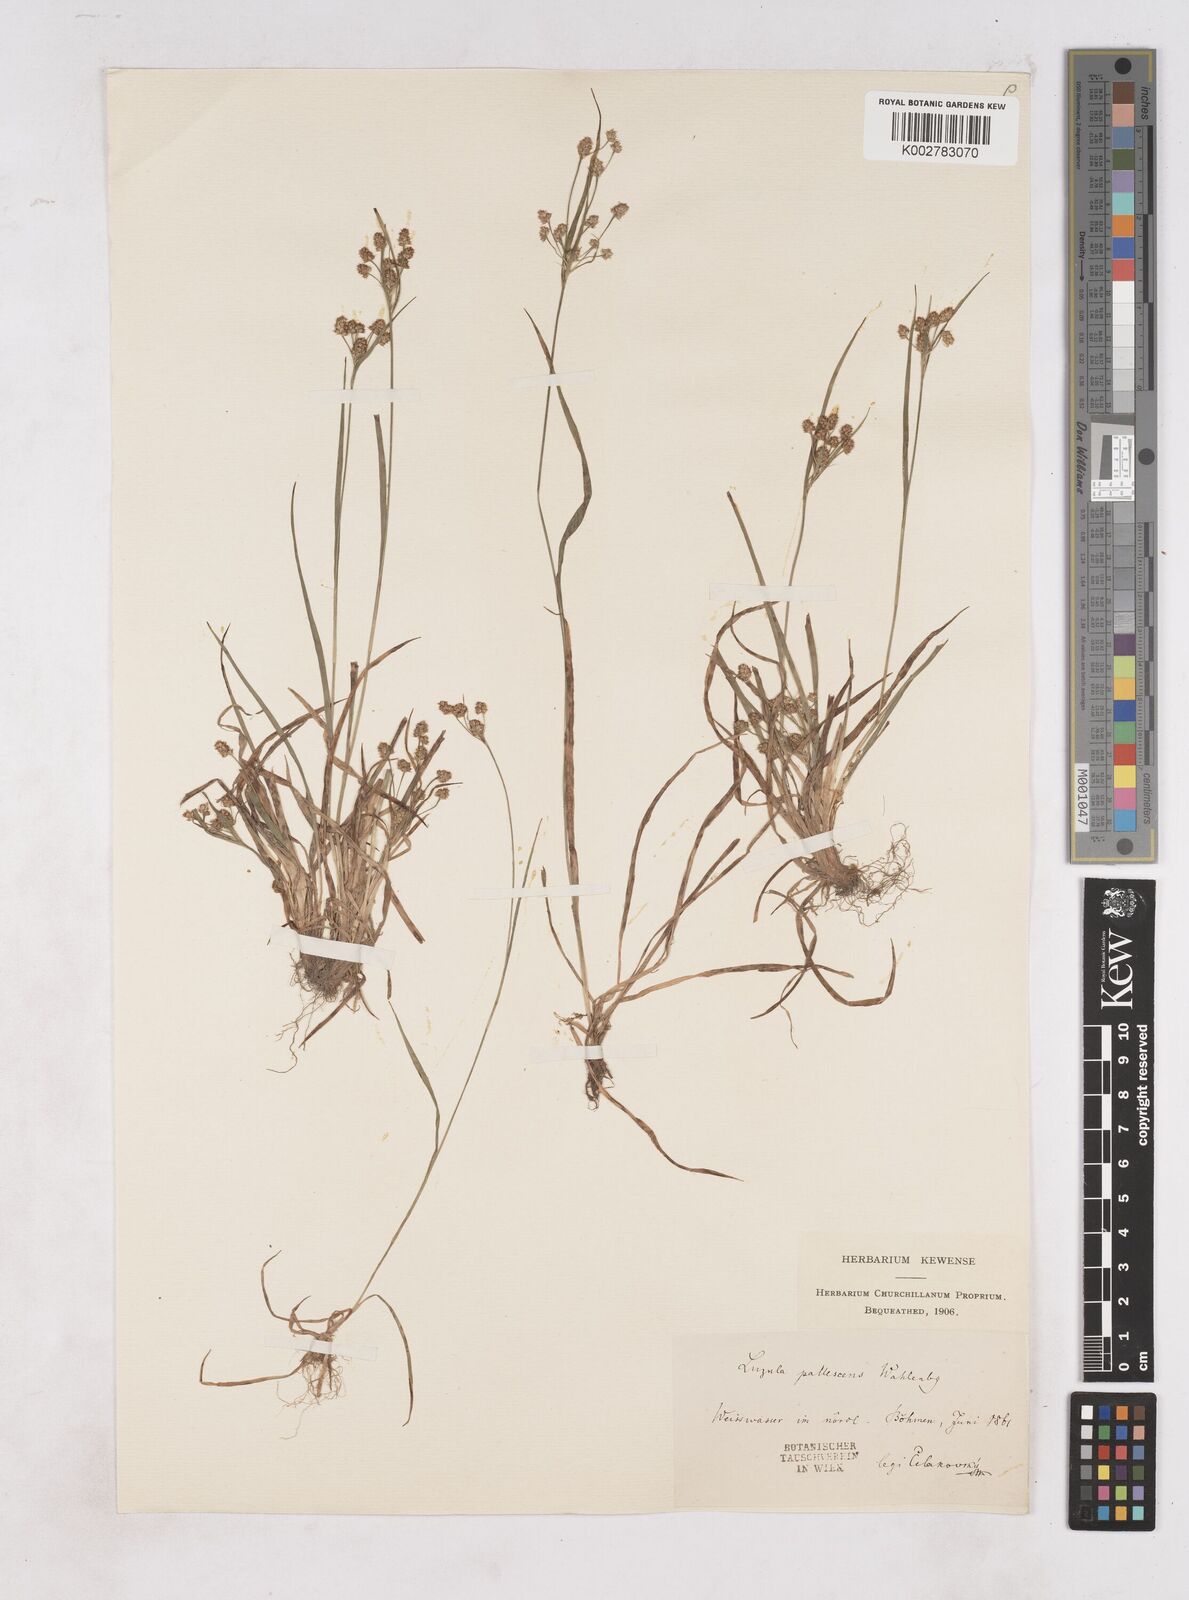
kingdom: Plantae
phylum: Tracheophyta
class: Liliopsida
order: Poales
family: Juncaceae
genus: Luzula
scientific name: Luzula pallescens
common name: Fen wood-rush
